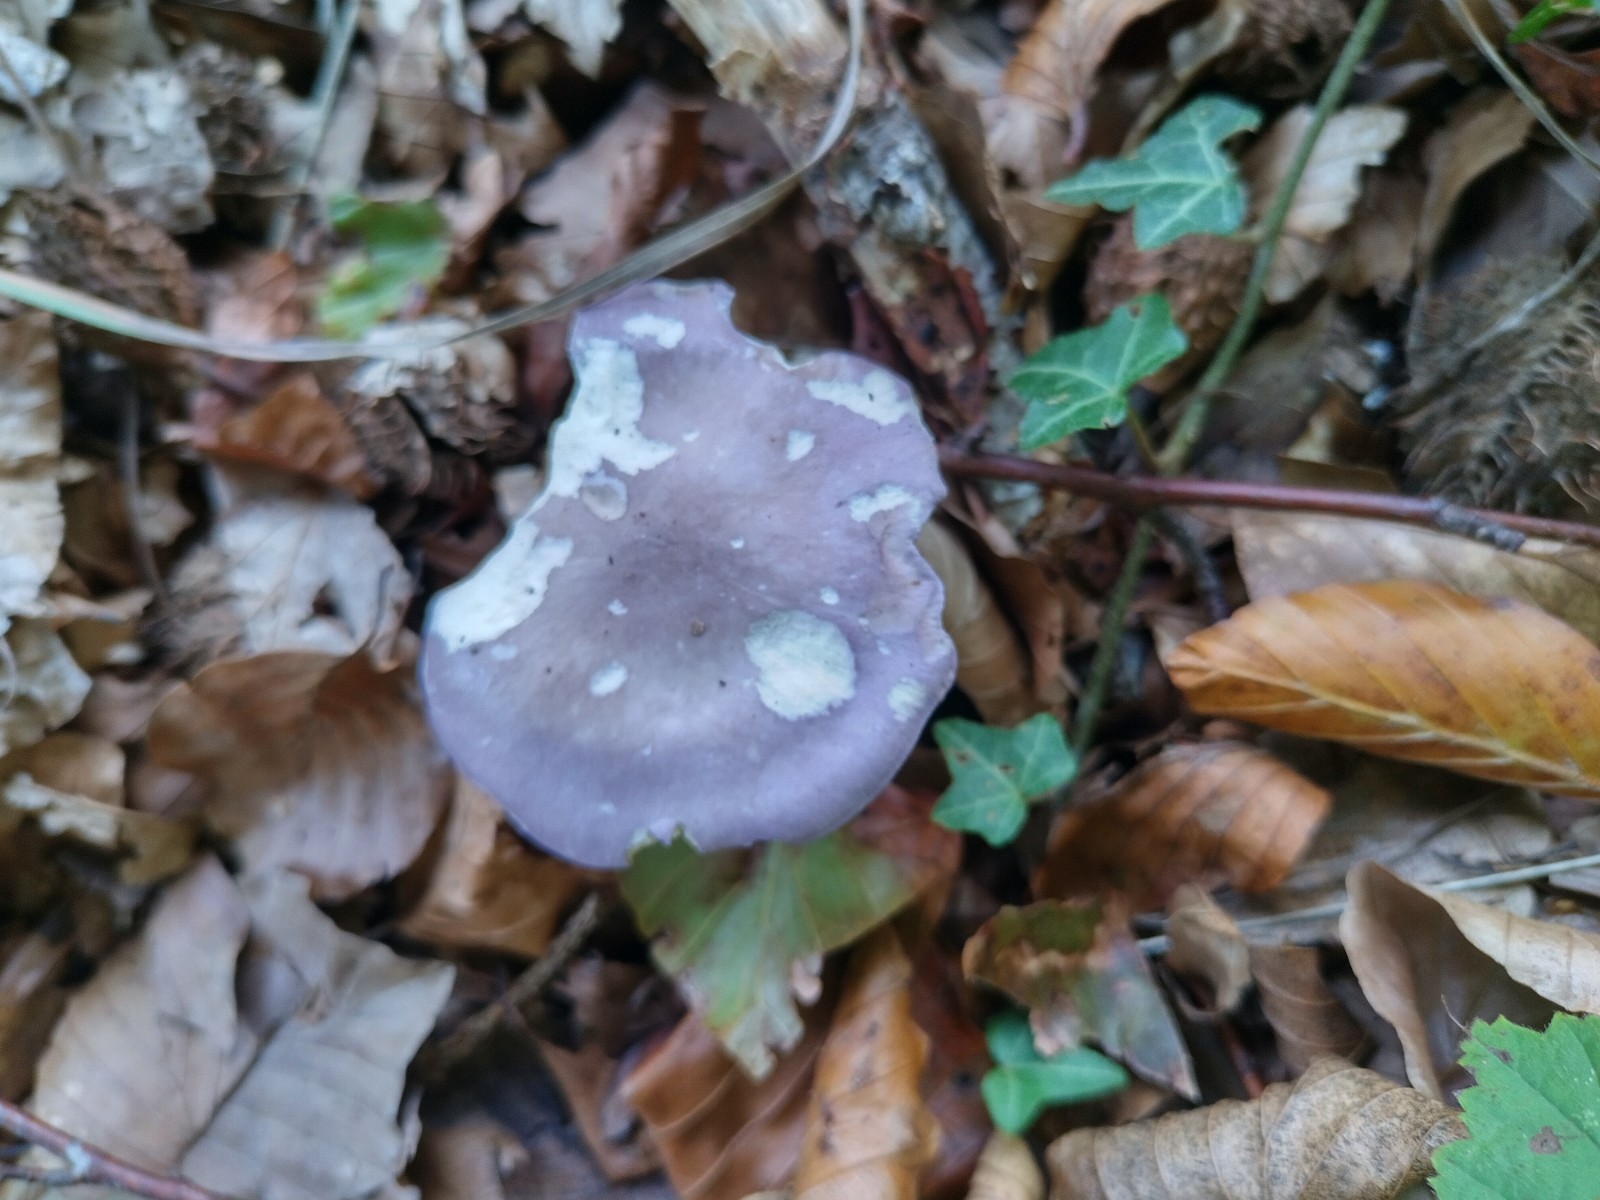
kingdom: Fungi
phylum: Basidiomycota
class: Agaricomycetes
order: Agaricales
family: Lyophyllaceae
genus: Calocybe
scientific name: Calocybe ionides
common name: violblå fagerhat
